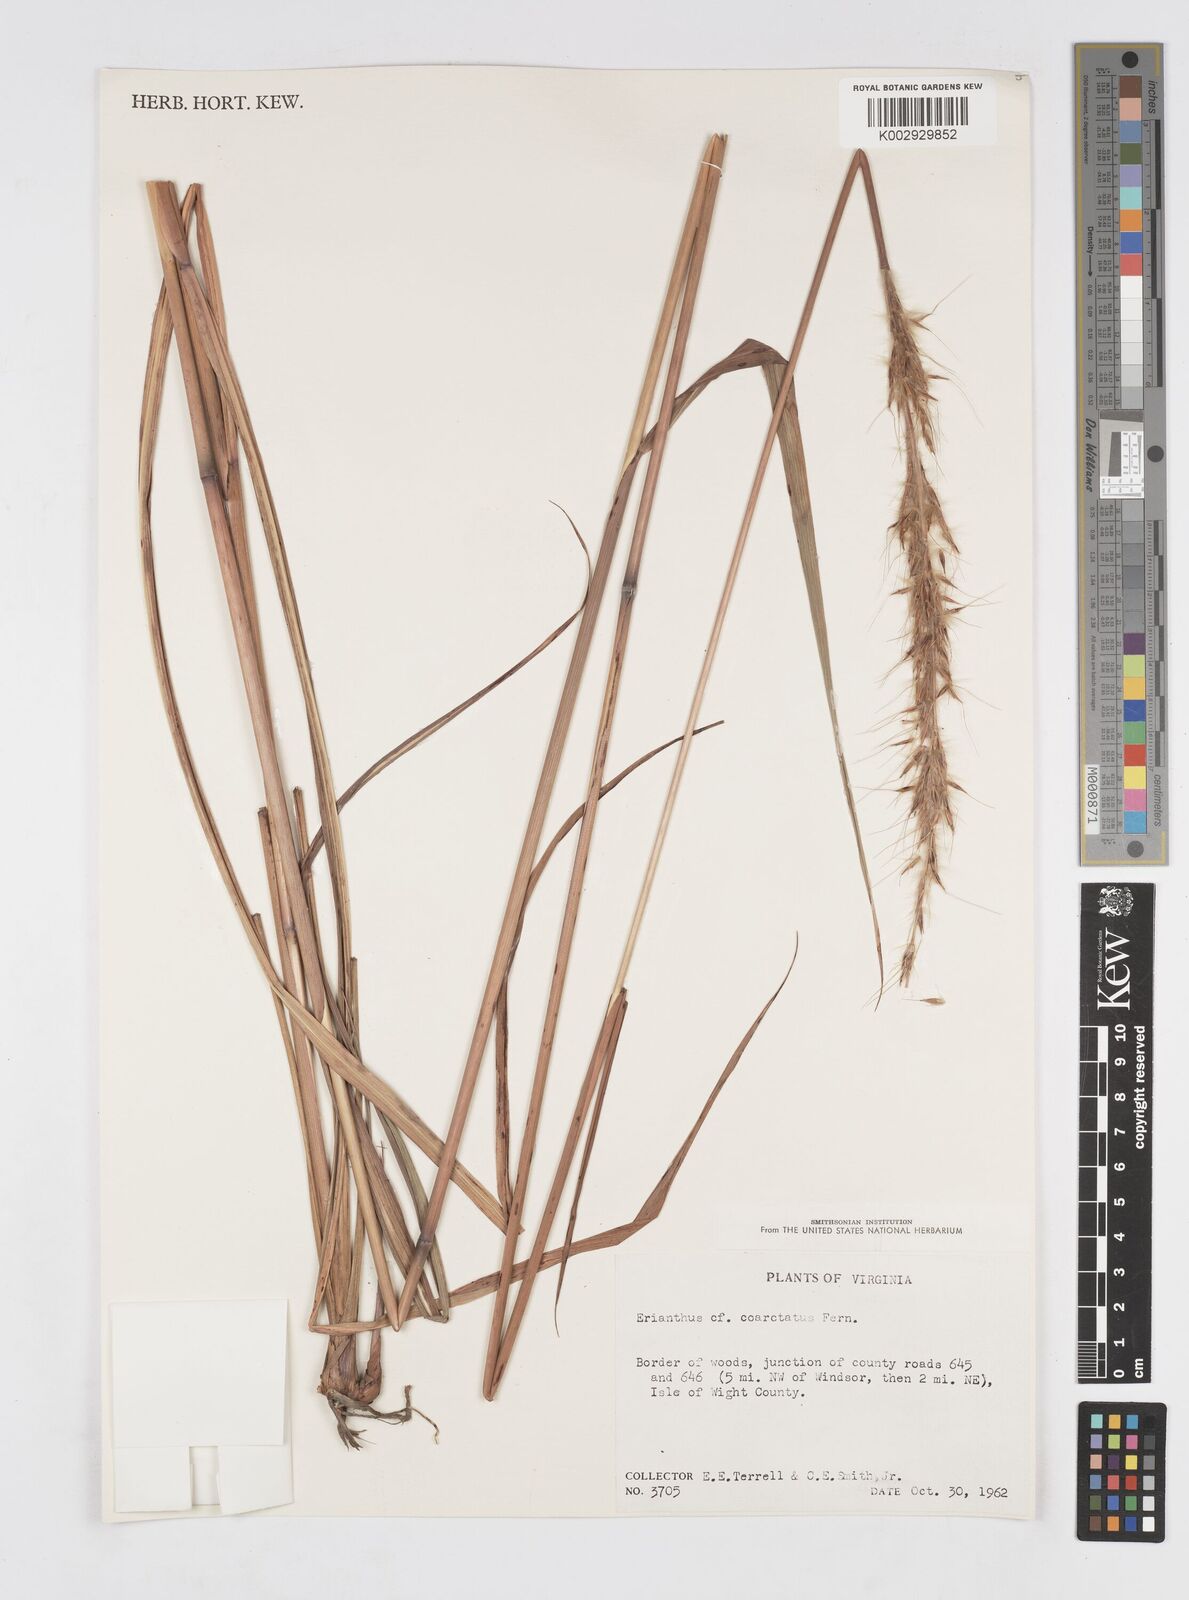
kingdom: Plantae
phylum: Tracheophyta
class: Liliopsida
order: Poales
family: Poaceae
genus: Saccharum
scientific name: Saccharum
